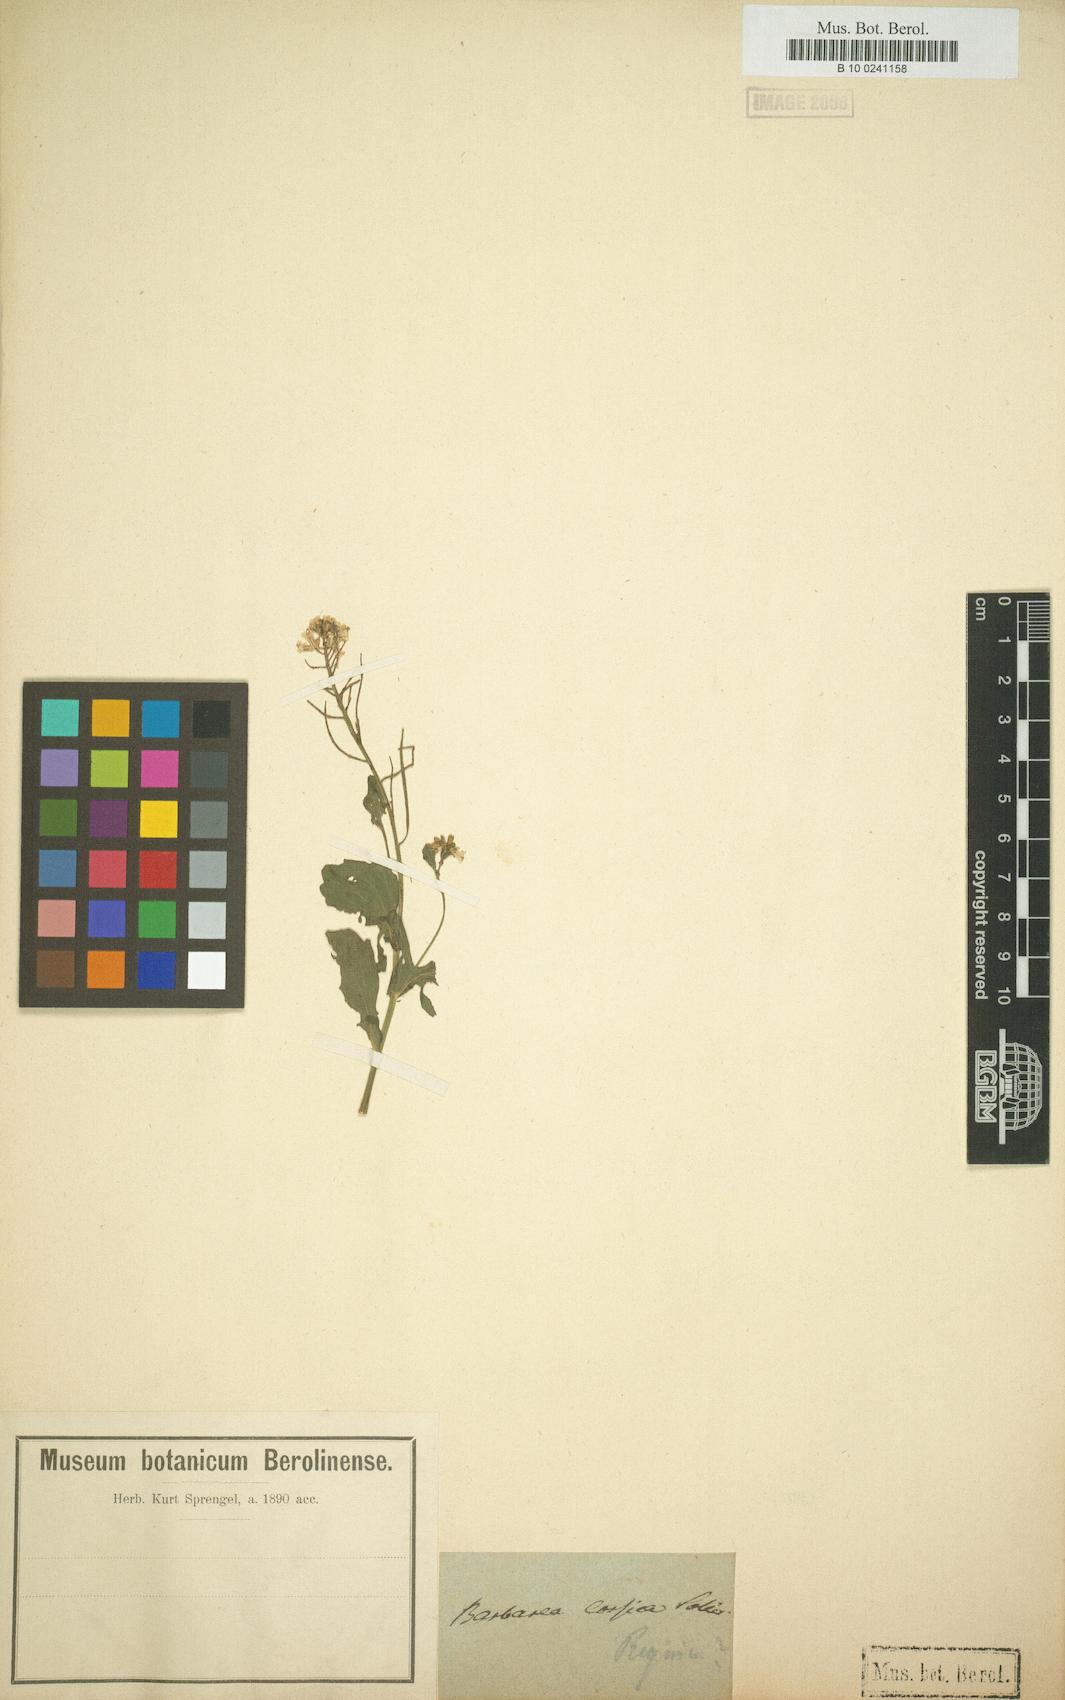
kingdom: Plantae
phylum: Tracheophyta
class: Magnoliopsida
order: Brassicales
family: Brassicaceae
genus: Barbarea
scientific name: Barbarea
